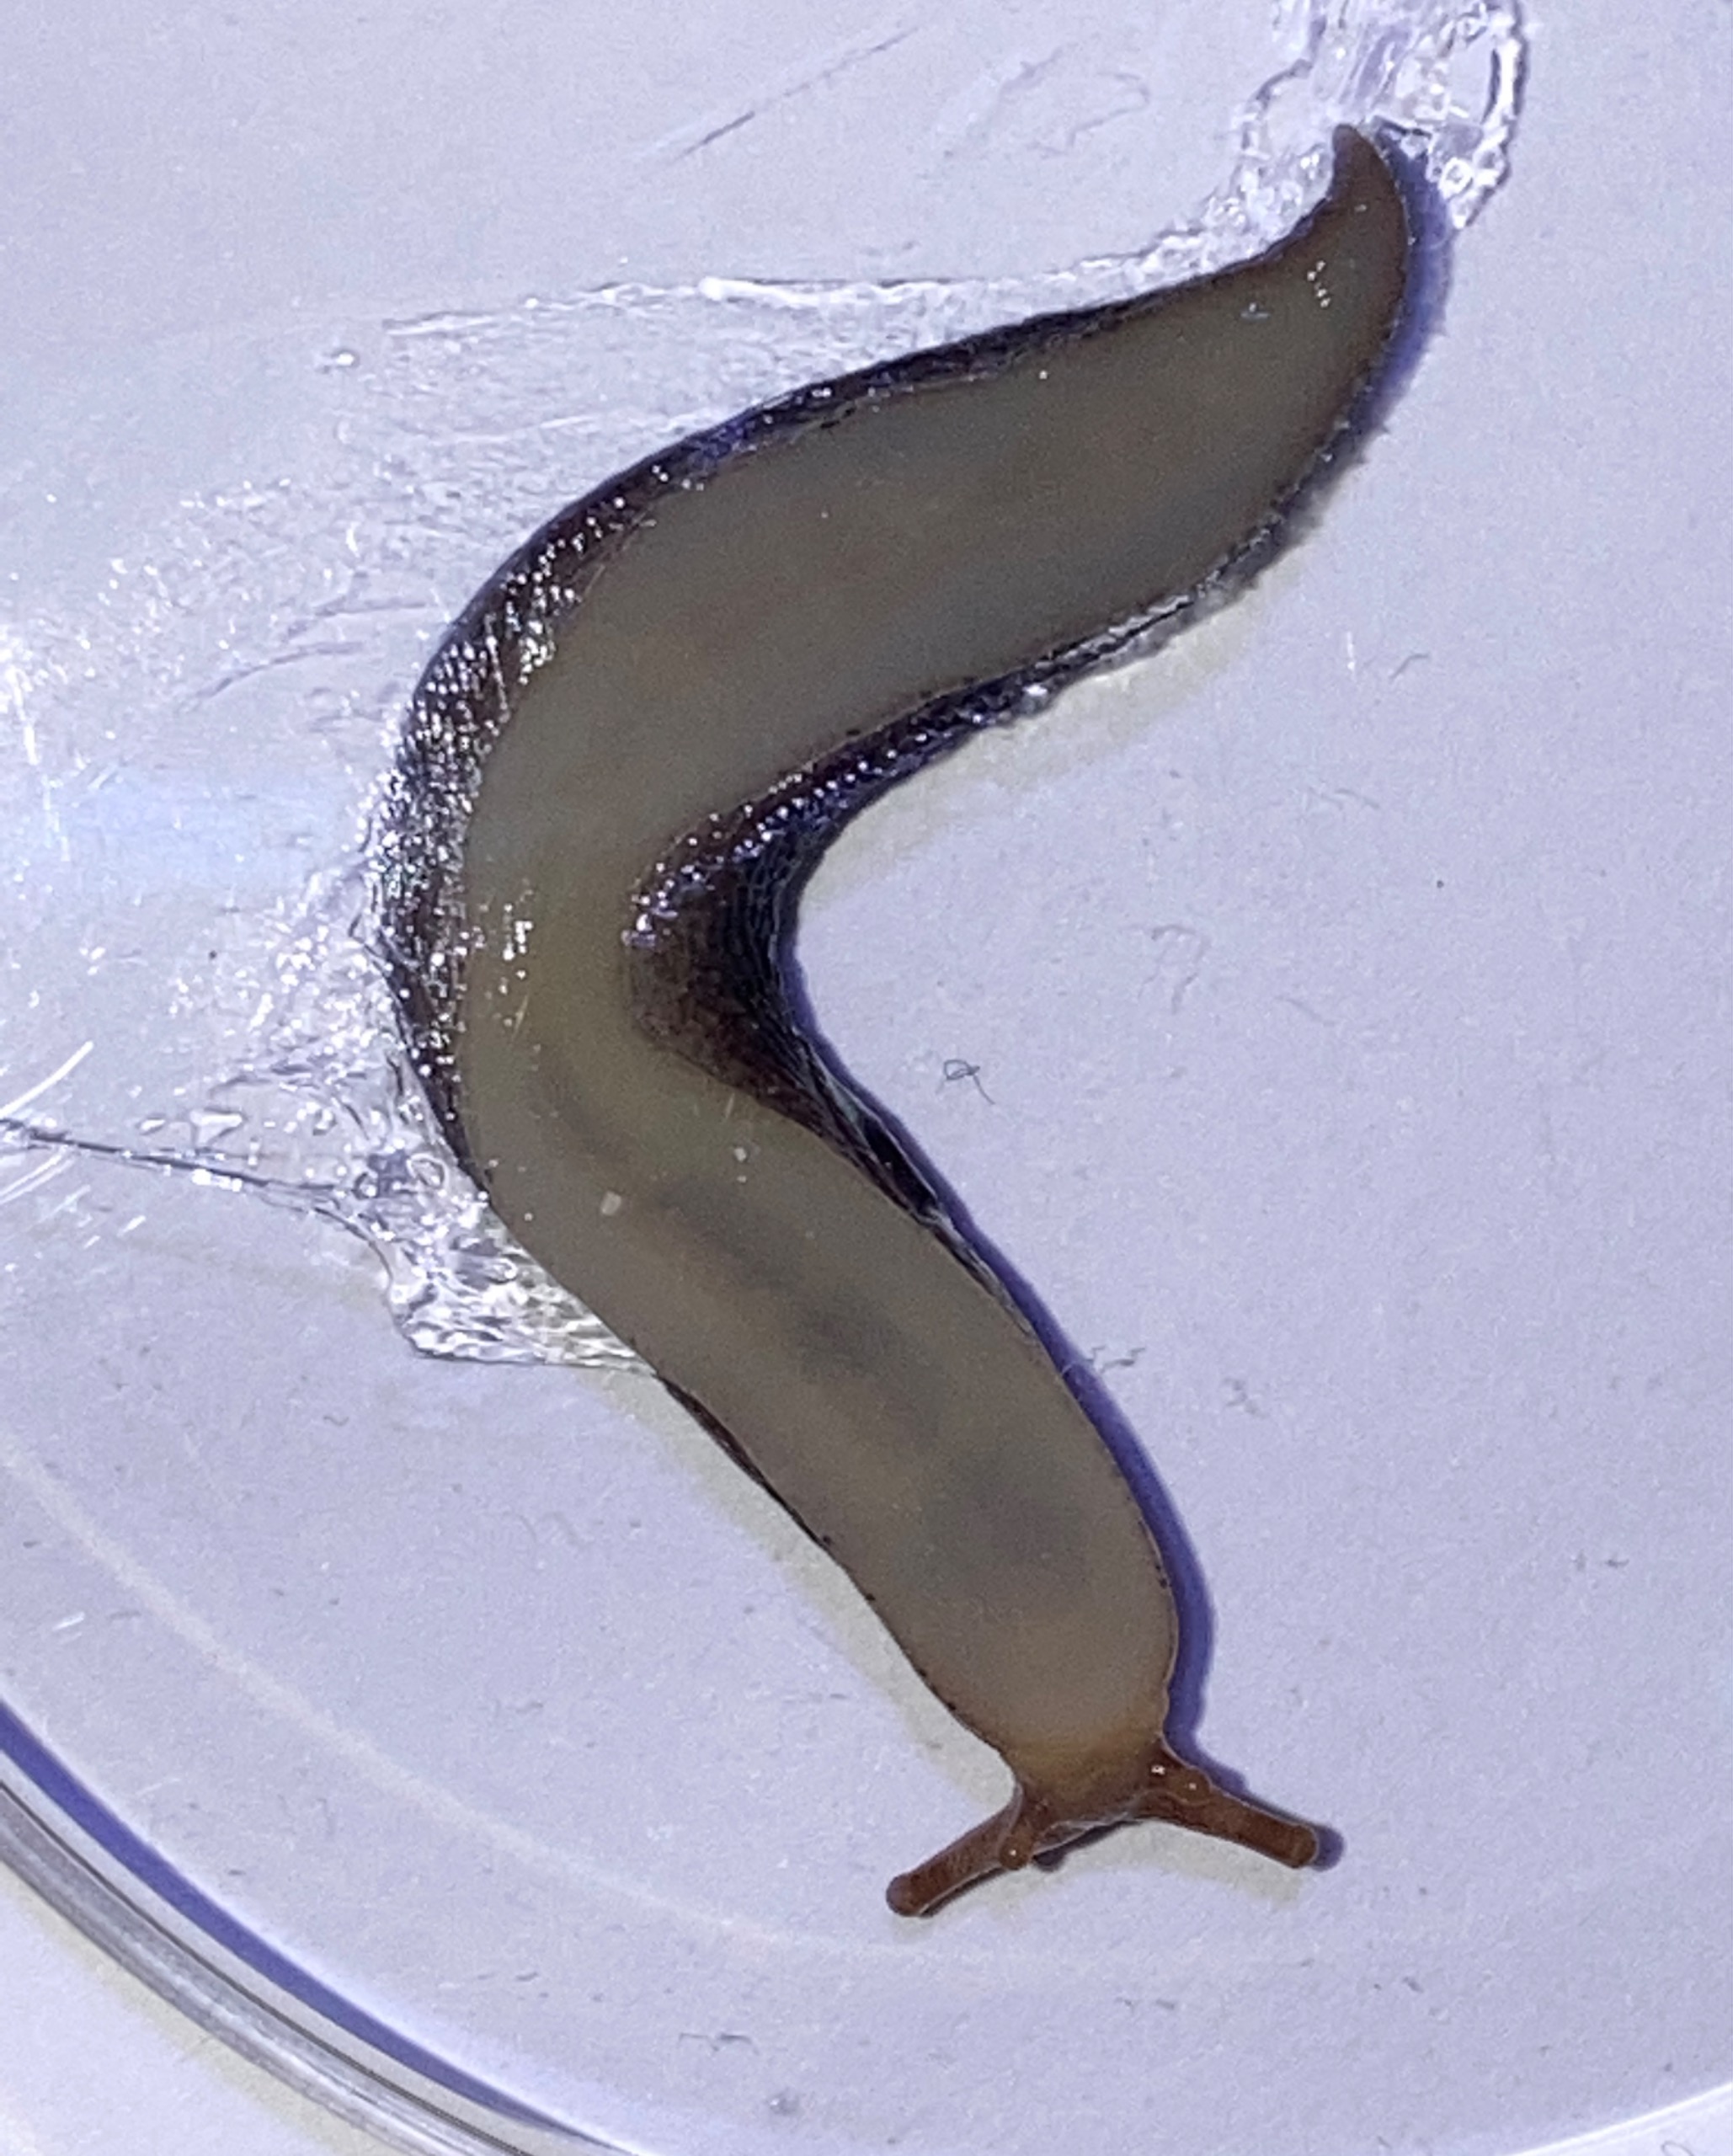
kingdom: Animalia
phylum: Mollusca
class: Gastropoda
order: Stylommatophora
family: Limacidae
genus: Limax
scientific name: Limax maximus
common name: Pantersnegl
